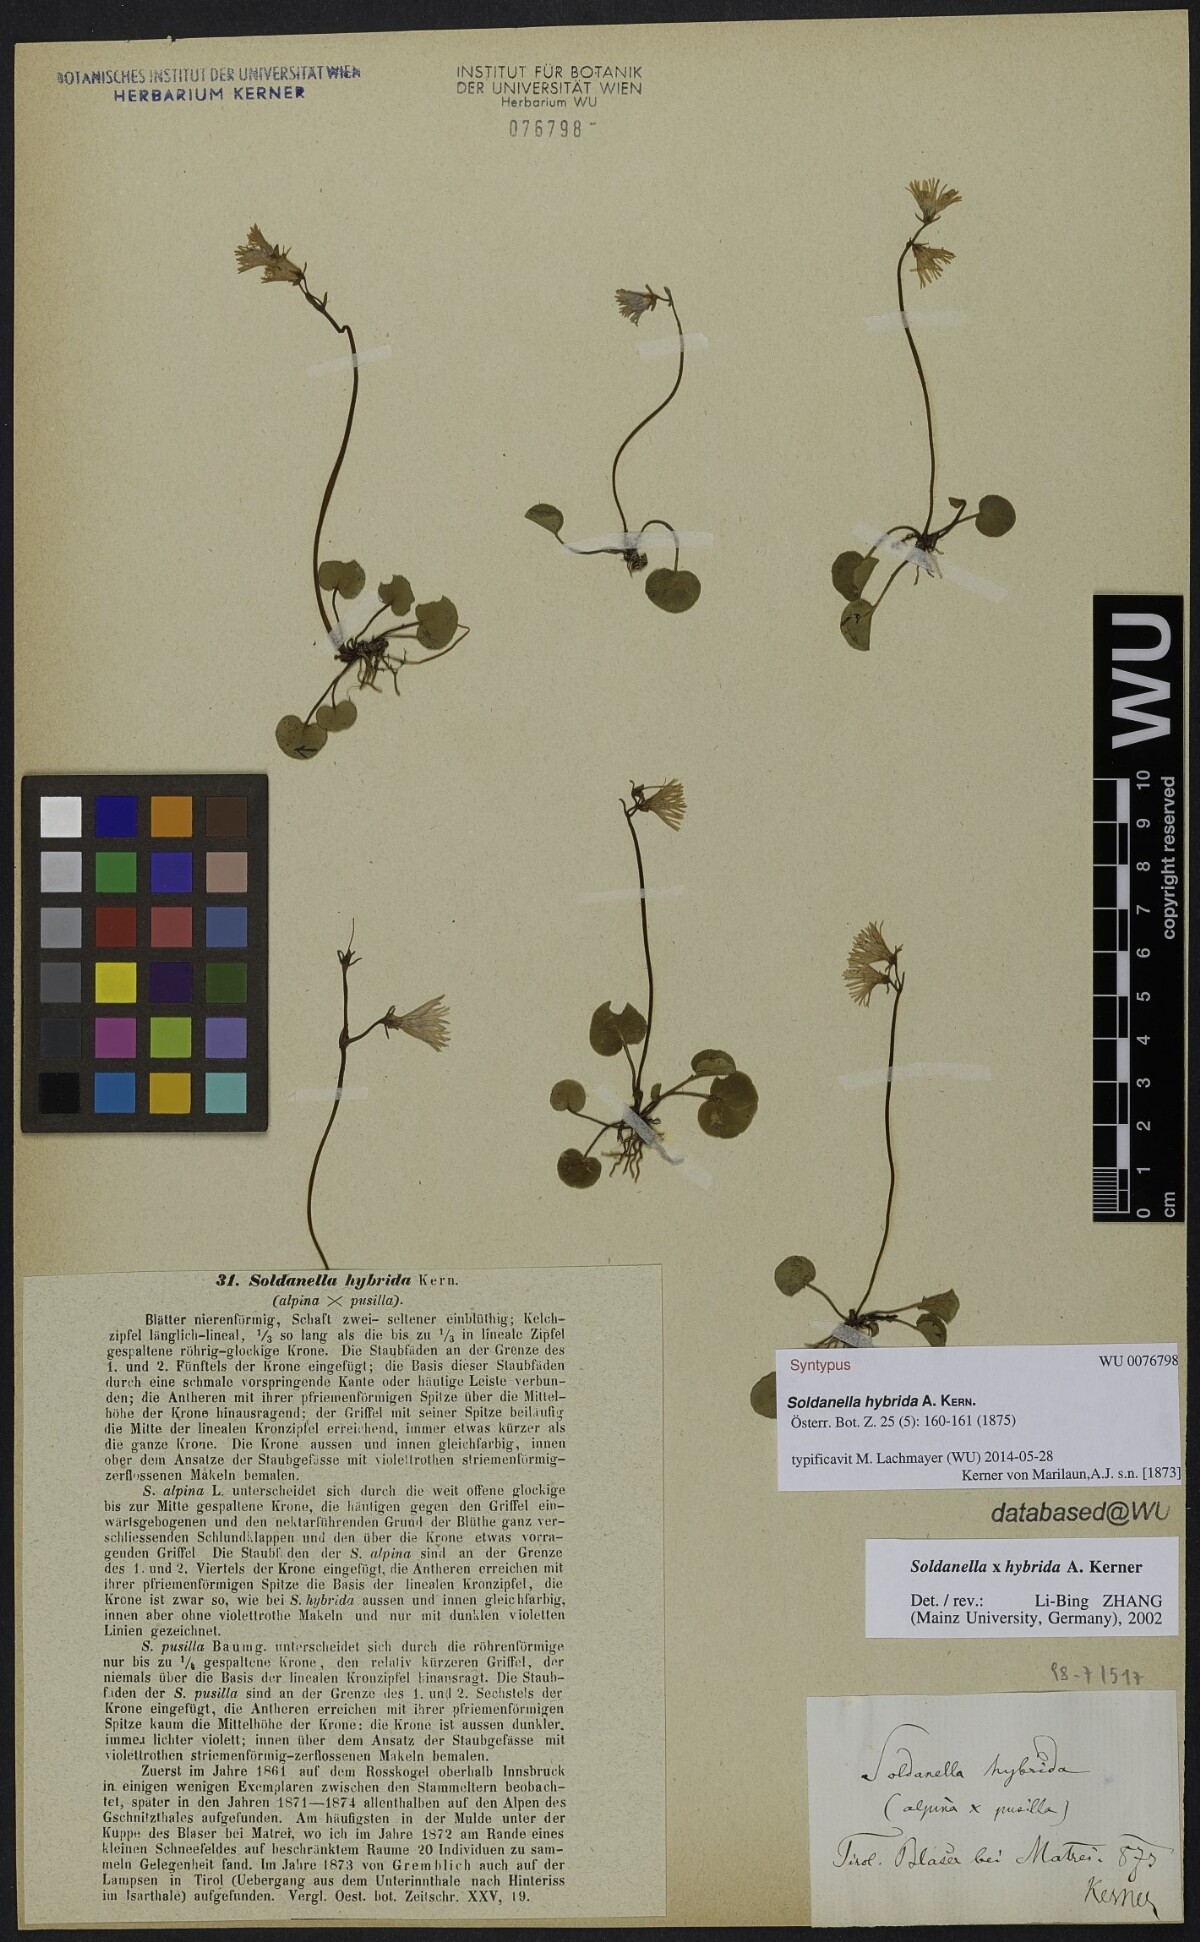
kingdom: Plantae
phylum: Tracheophyta
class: Magnoliopsida
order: Ericales
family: Primulaceae
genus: Soldanella
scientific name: Soldanella hybrida
